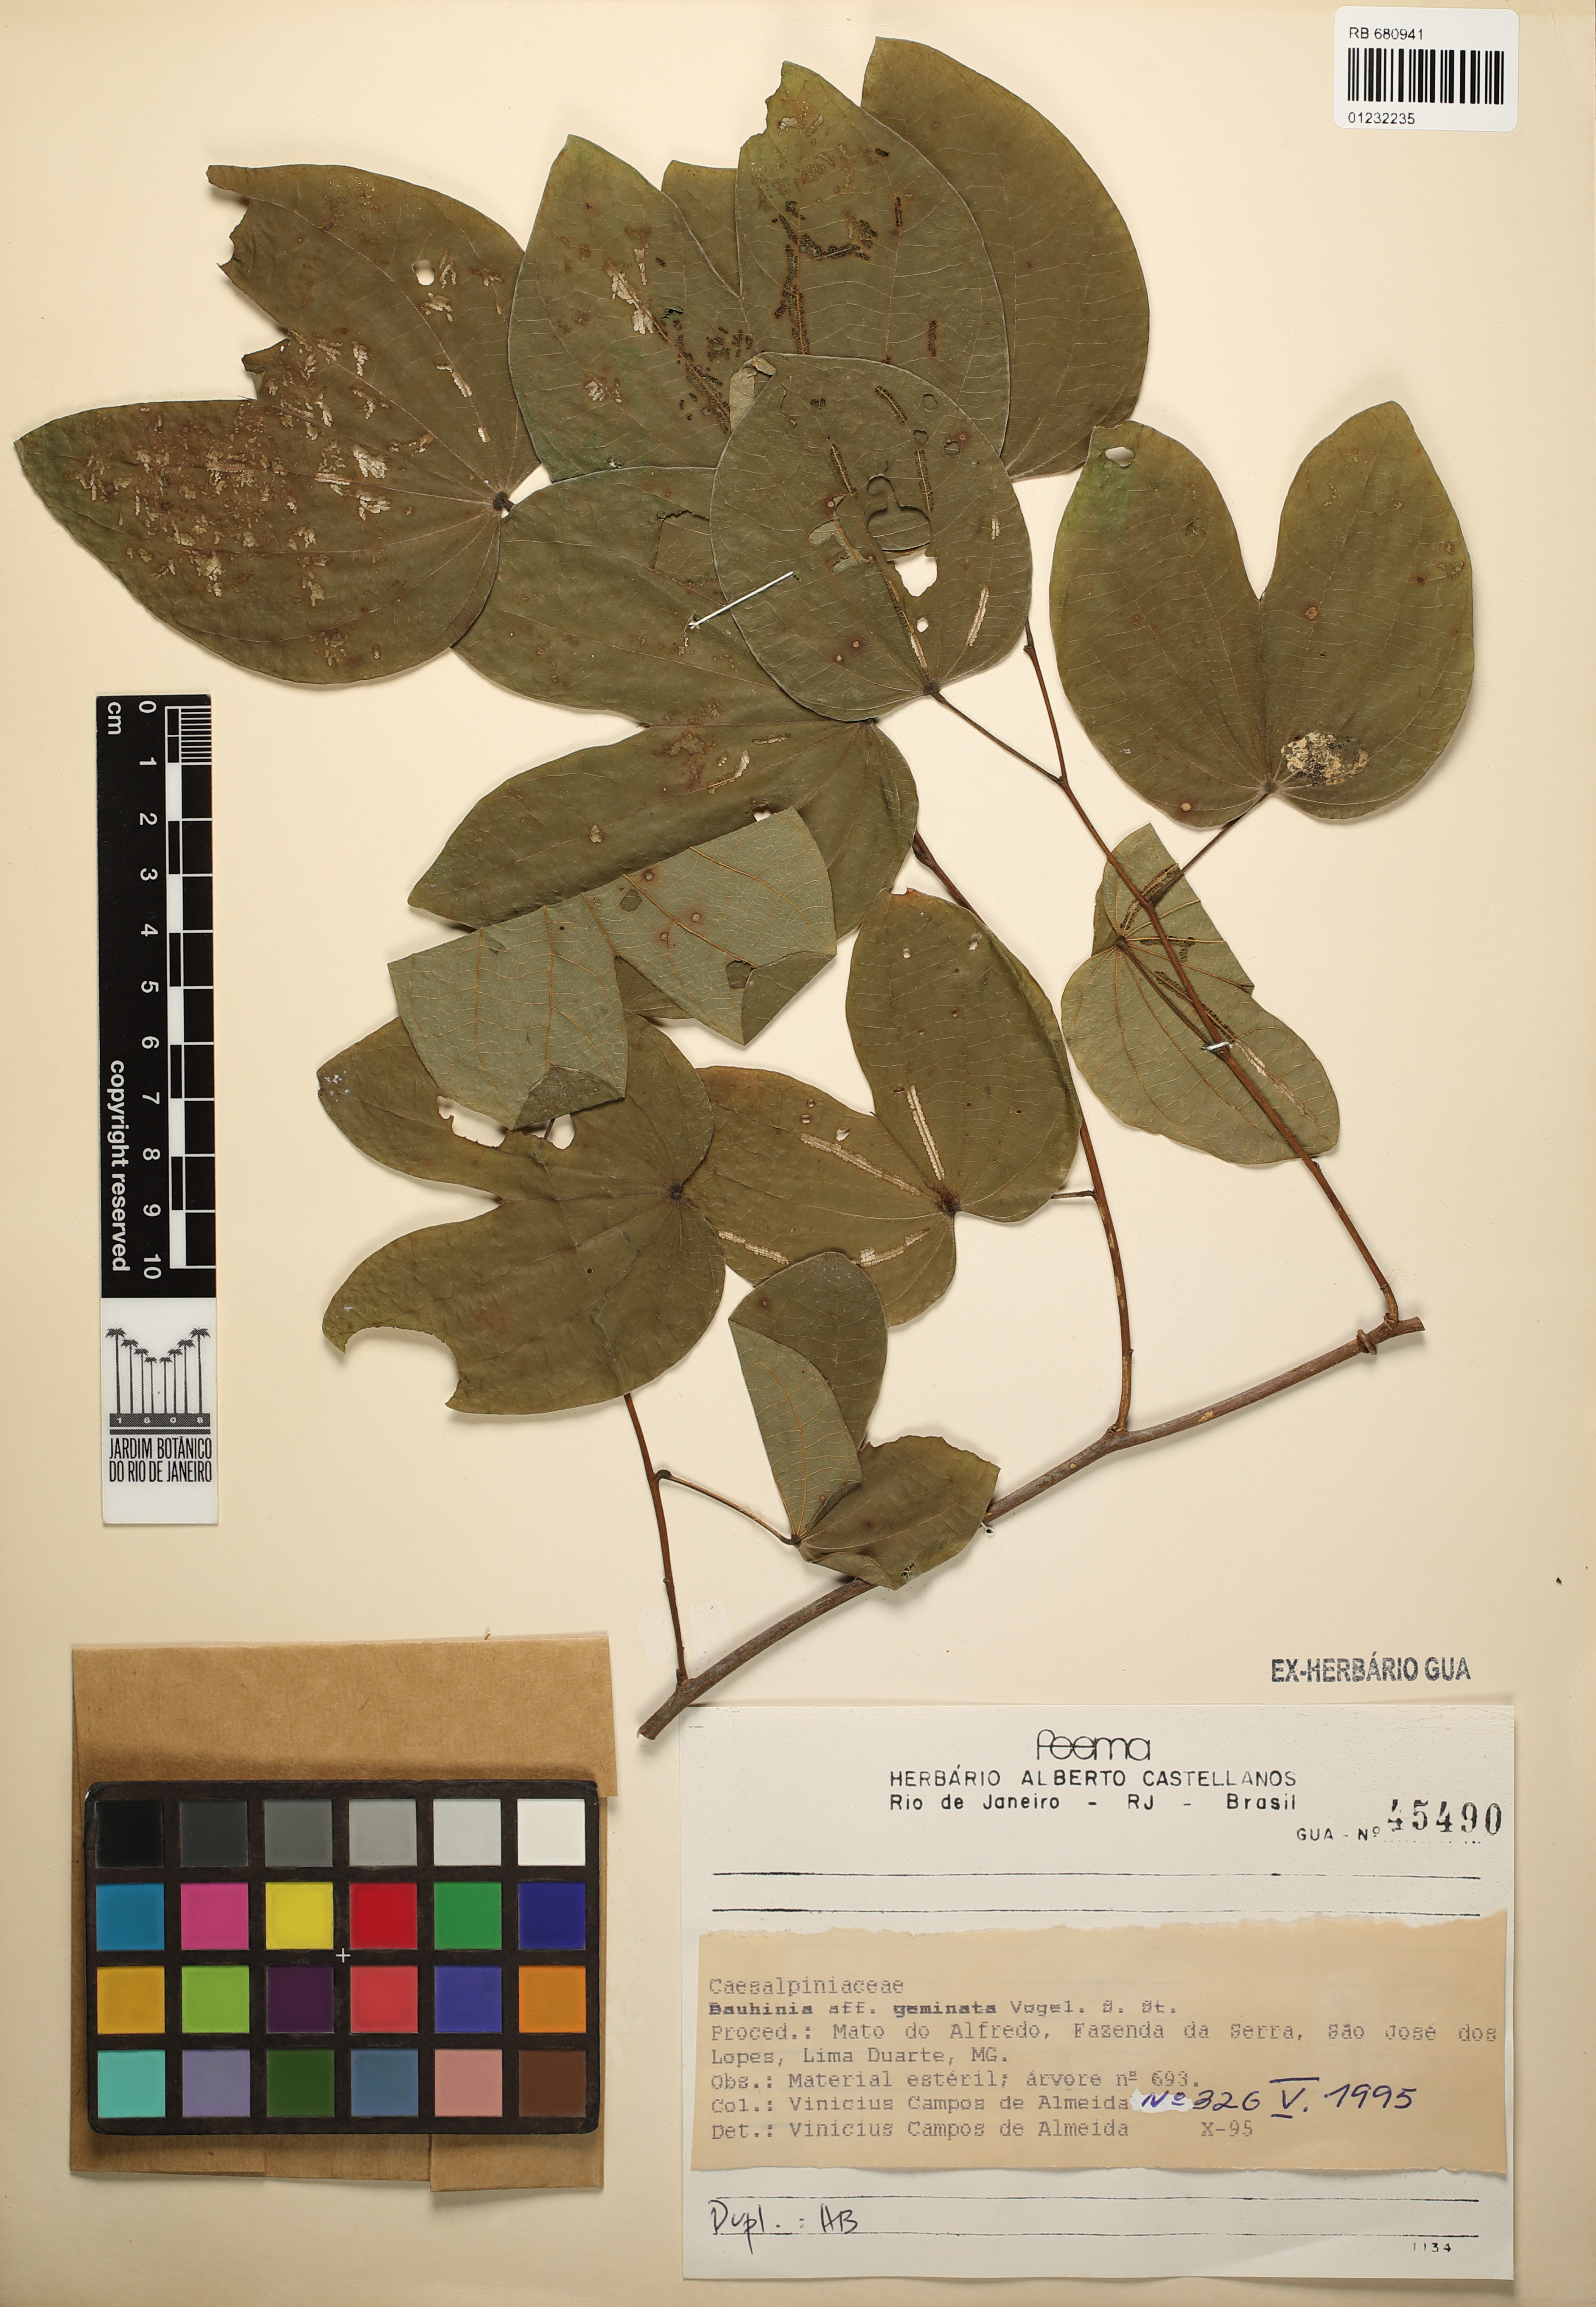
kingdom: Plantae
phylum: Tracheophyta
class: Magnoliopsida
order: Fabales
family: Fabaceae
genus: Bauhinia
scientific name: Bauhinia longifolia
